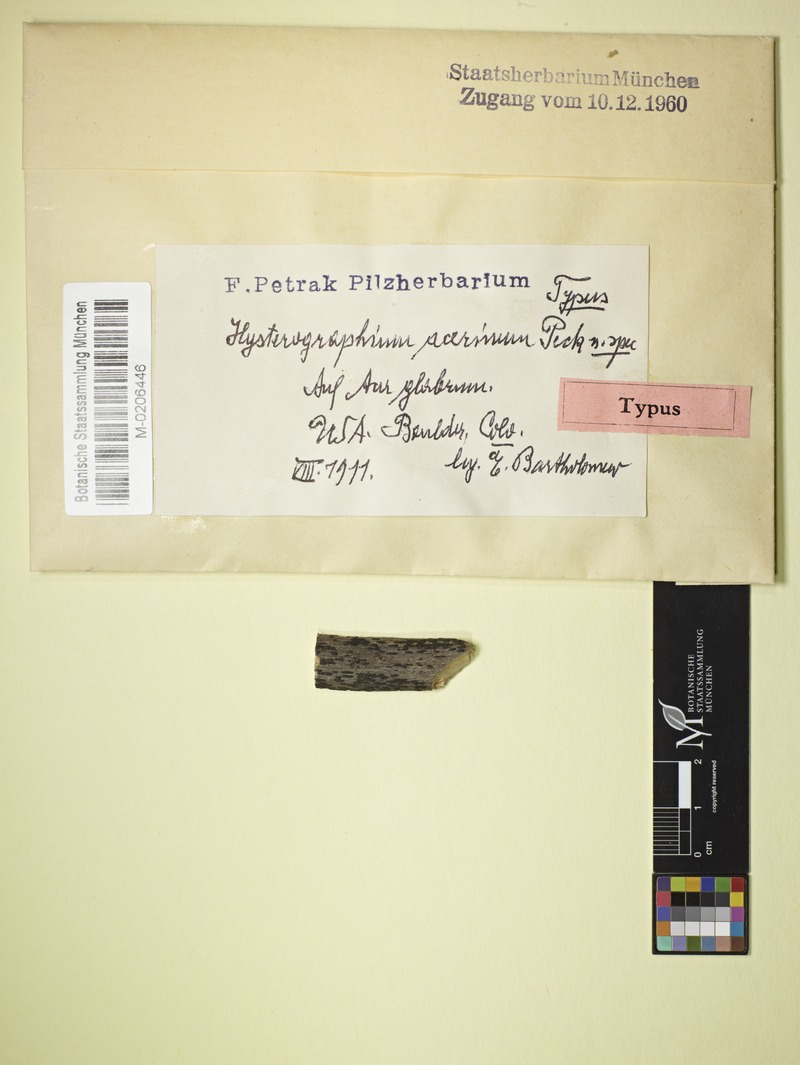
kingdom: Fungi
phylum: Ascomycota
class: Dothideomycetes
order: Hysteriales
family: Hysteriaceae
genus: Hysterium
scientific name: Hysterium pulicare
